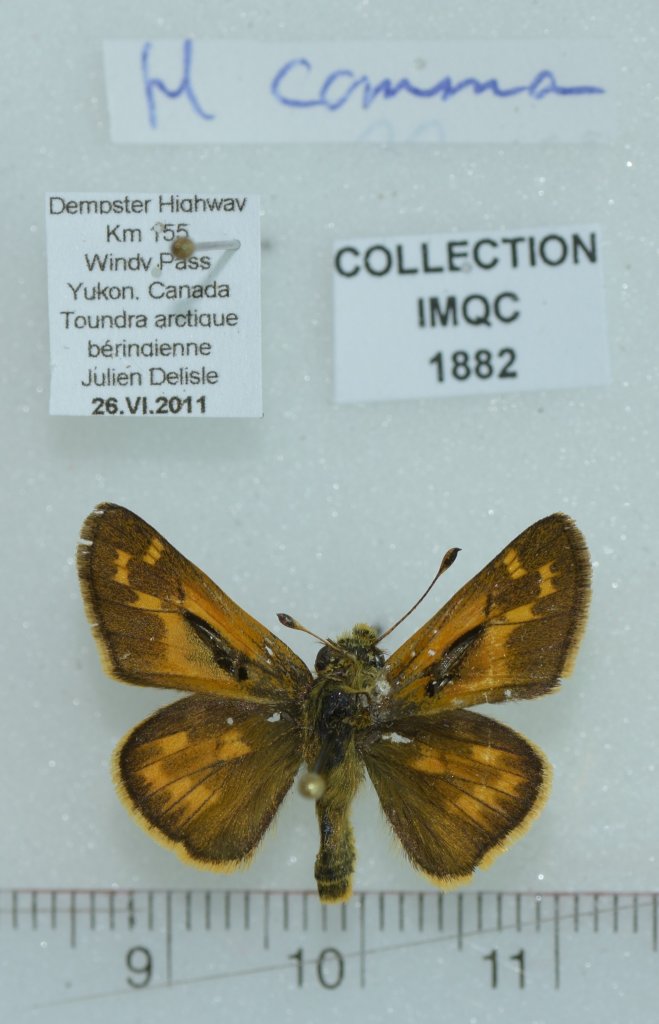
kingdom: Animalia
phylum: Arthropoda
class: Insecta
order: Lepidoptera
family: Hesperiidae
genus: Hesperia
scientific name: Hesperia comma
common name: Common Branded Skipper
